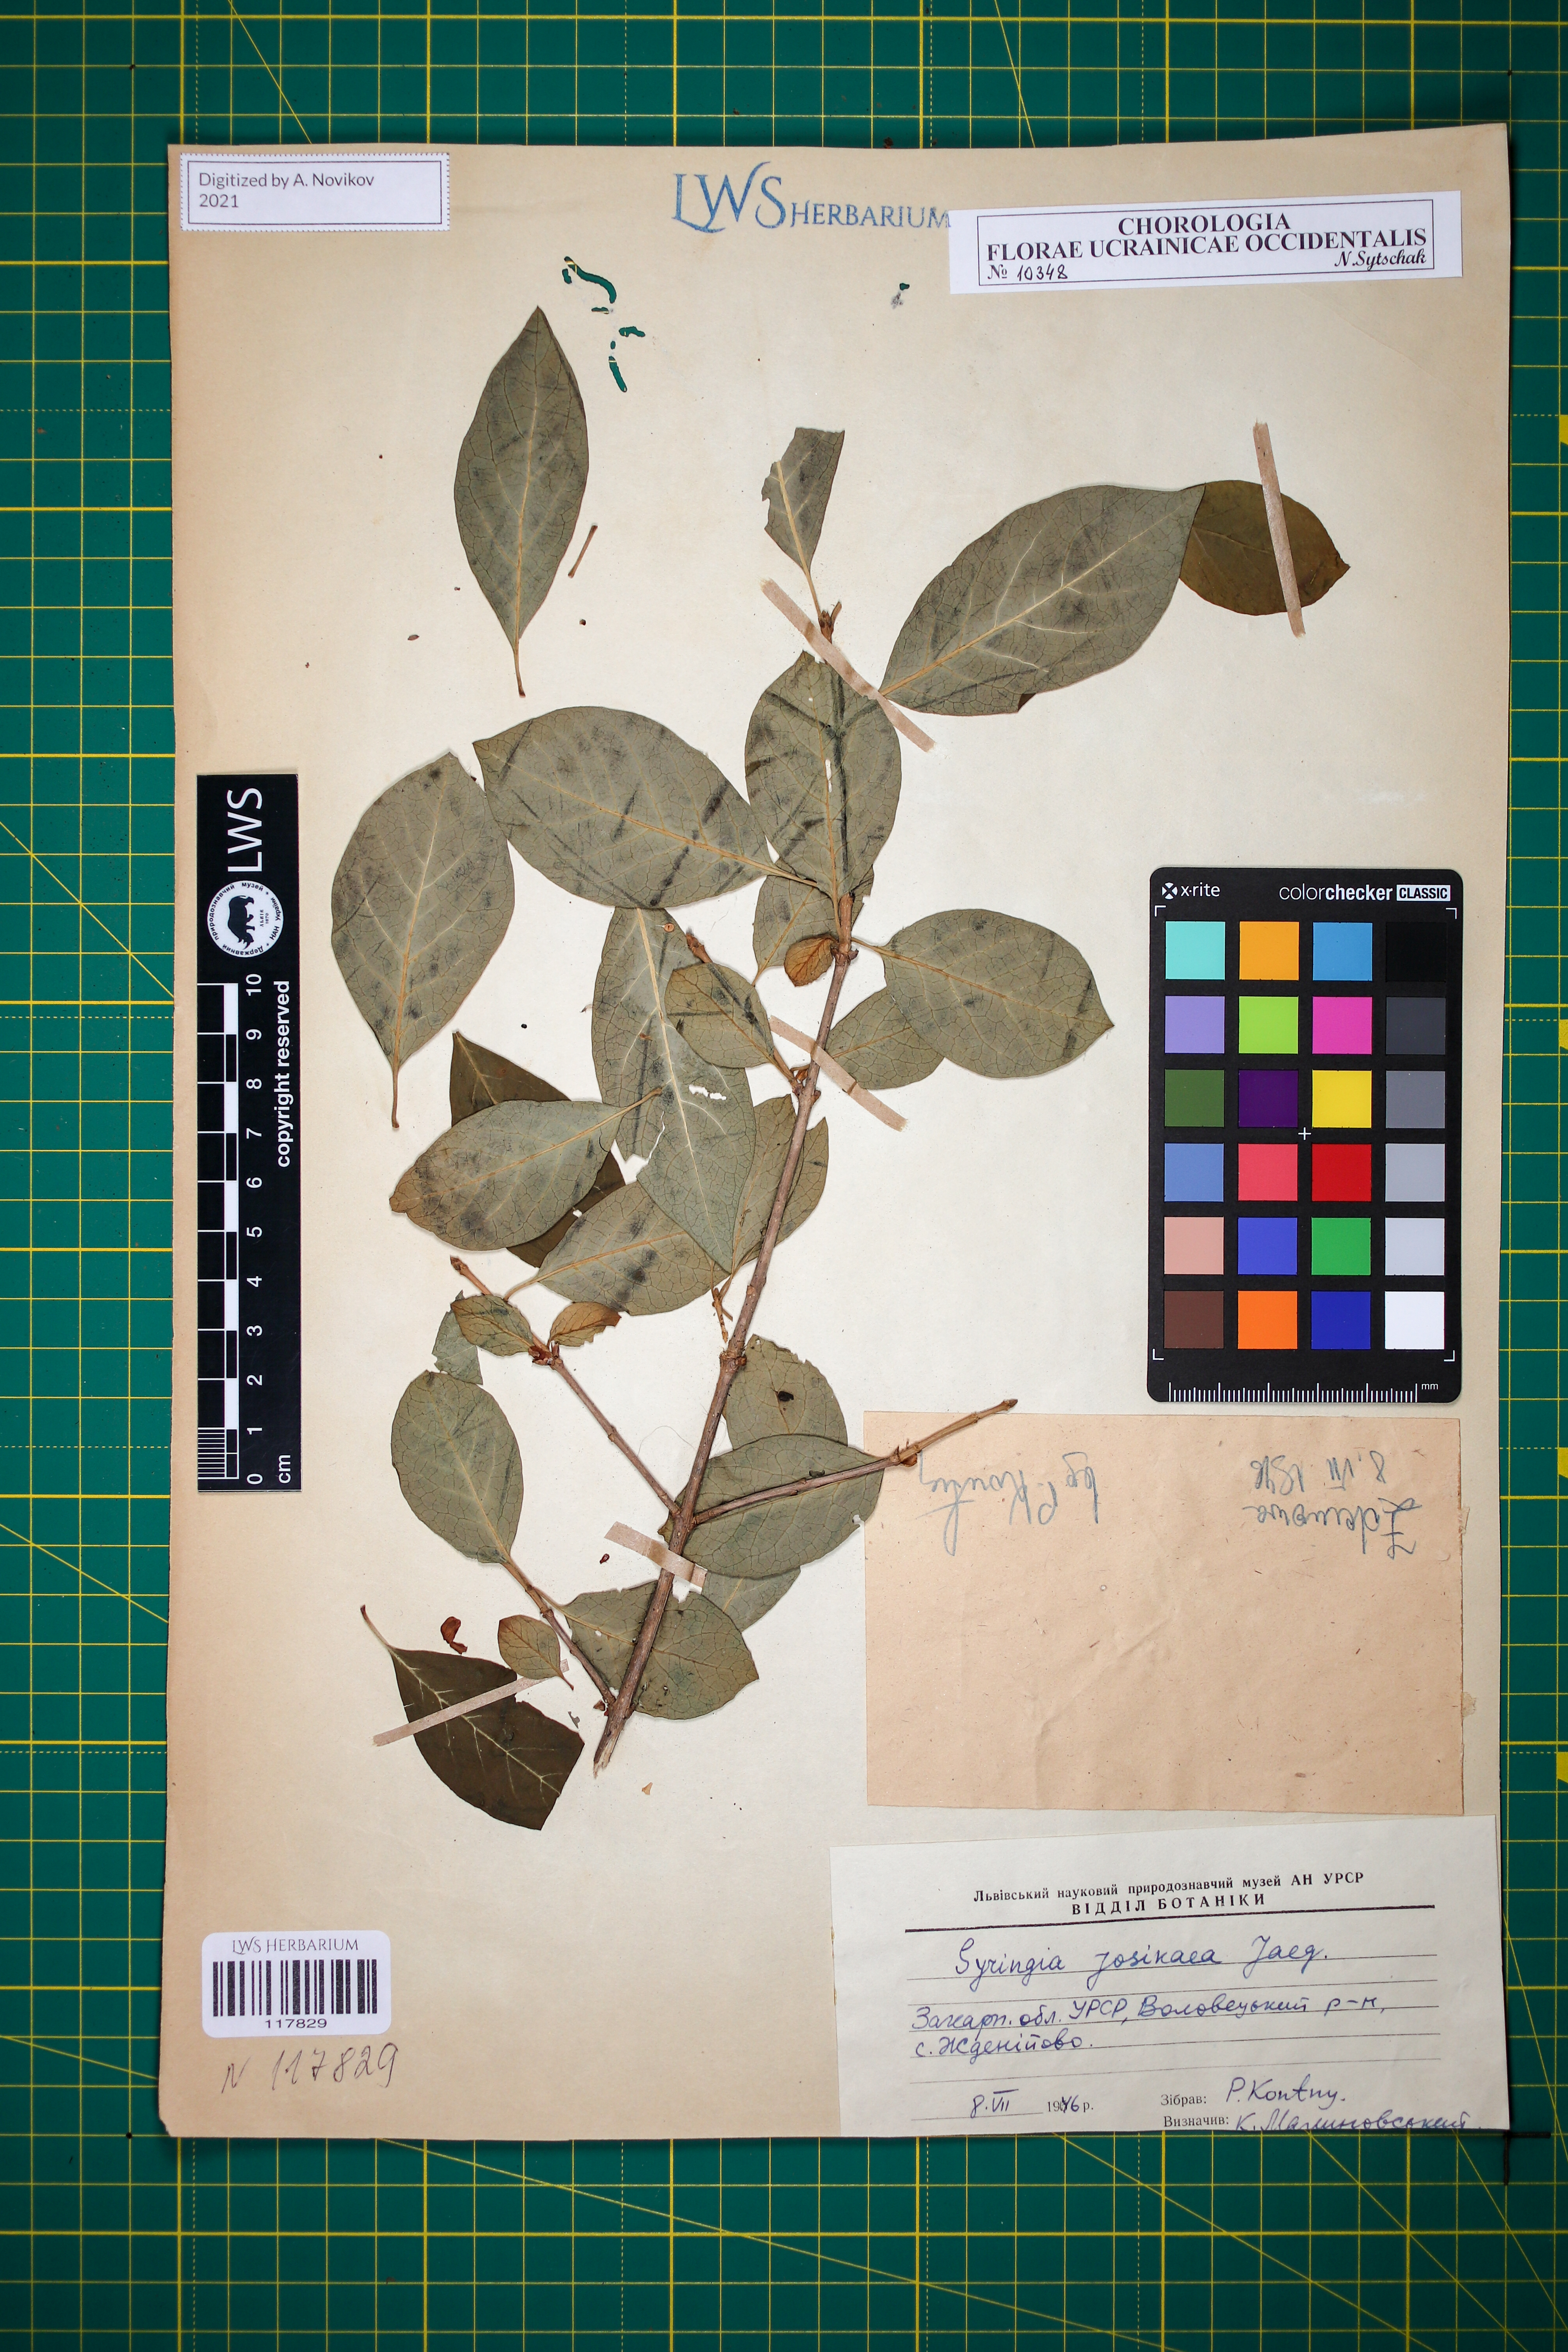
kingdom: Plantae
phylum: Tracheophyta
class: Magnoliopsida
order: Lamiales
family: Oleaceae
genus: Syringa
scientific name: Syringa josikaea
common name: Hungarian lilac
